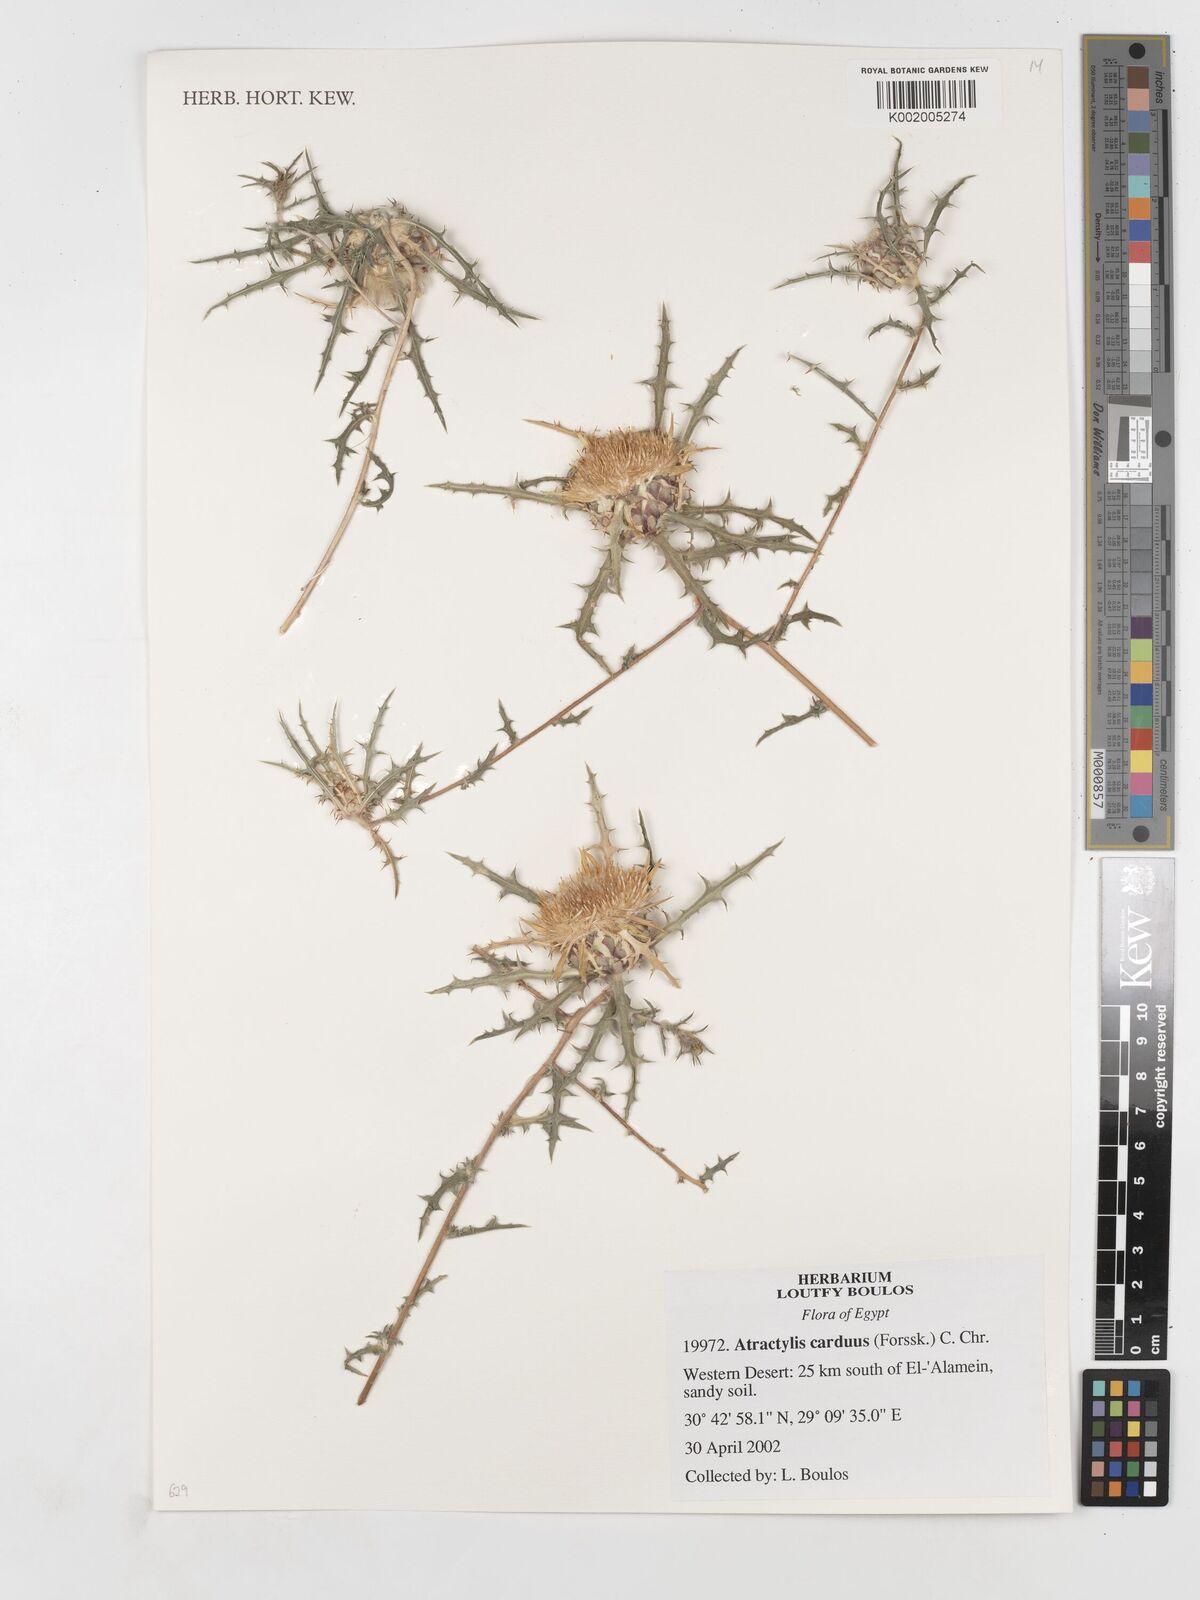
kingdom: Plantae
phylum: Tracheophyta
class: Magnoliopsida
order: Asterales
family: Asteraceae
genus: Atractylis
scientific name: Atractylis carduus
